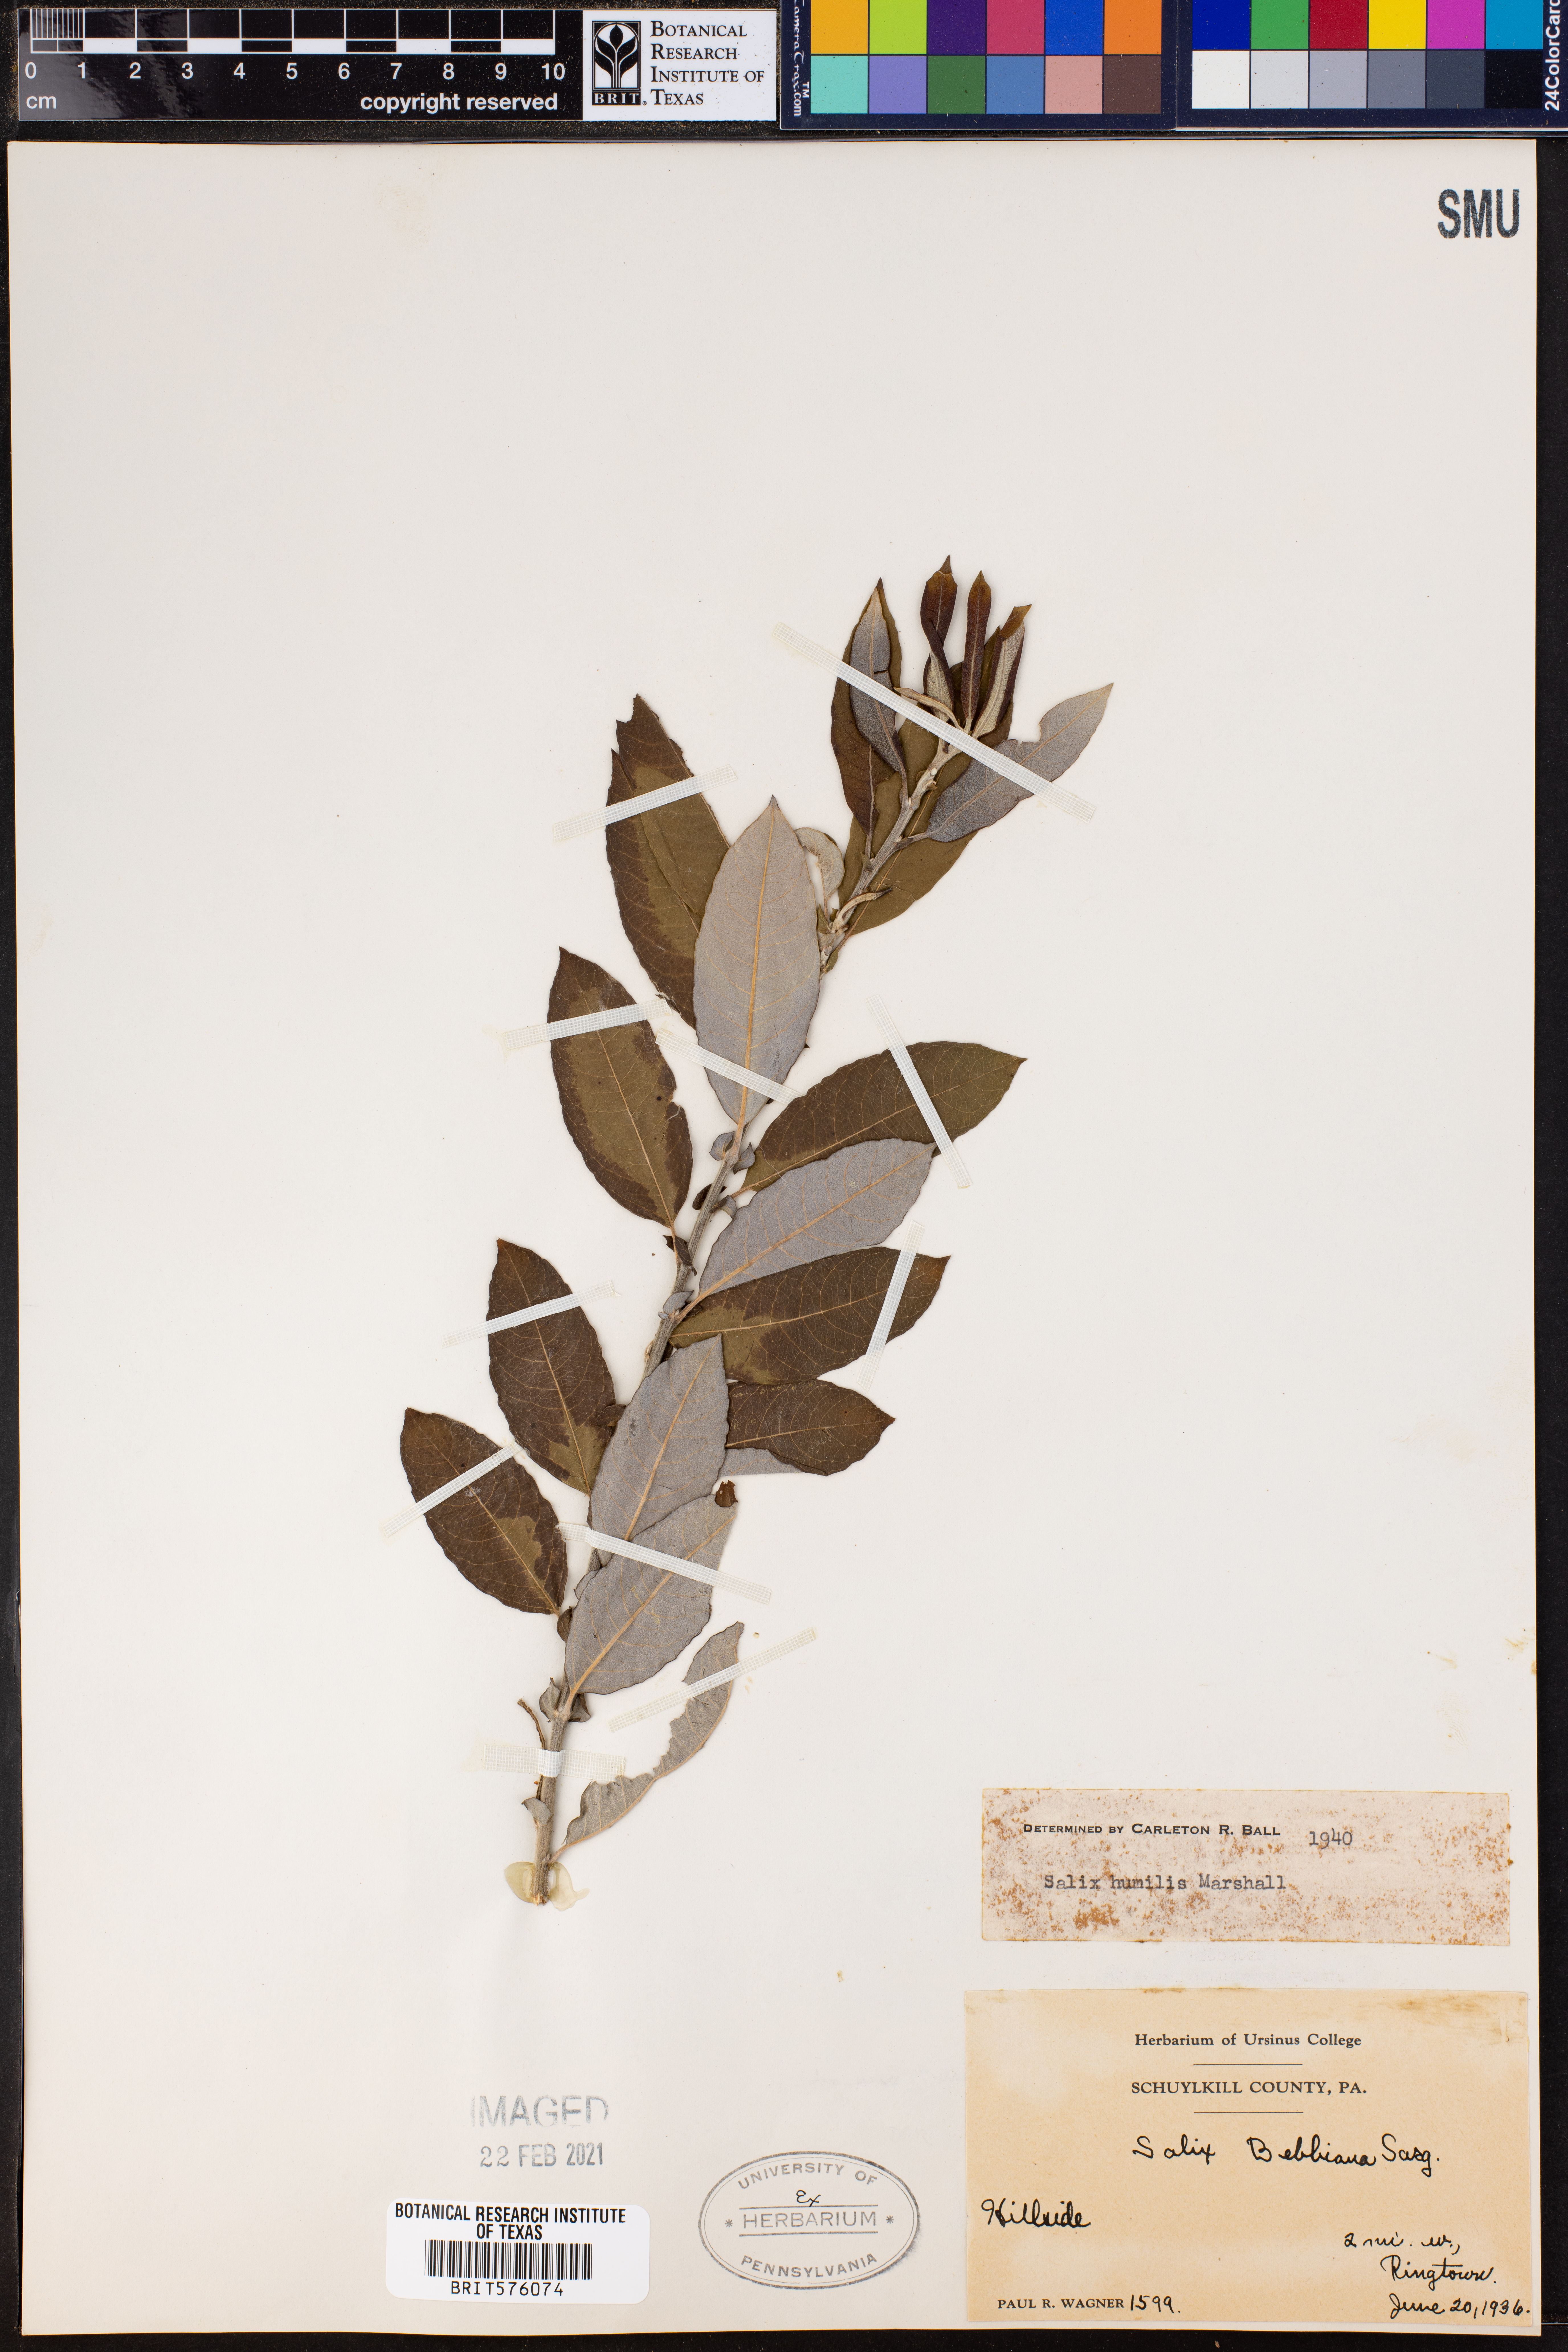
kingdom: Plantae
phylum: Tracheophyta
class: Magnoliopsida
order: Malpighiales
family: Salicaceae
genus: Salix
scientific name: Salix humilis
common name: Prairie willow
